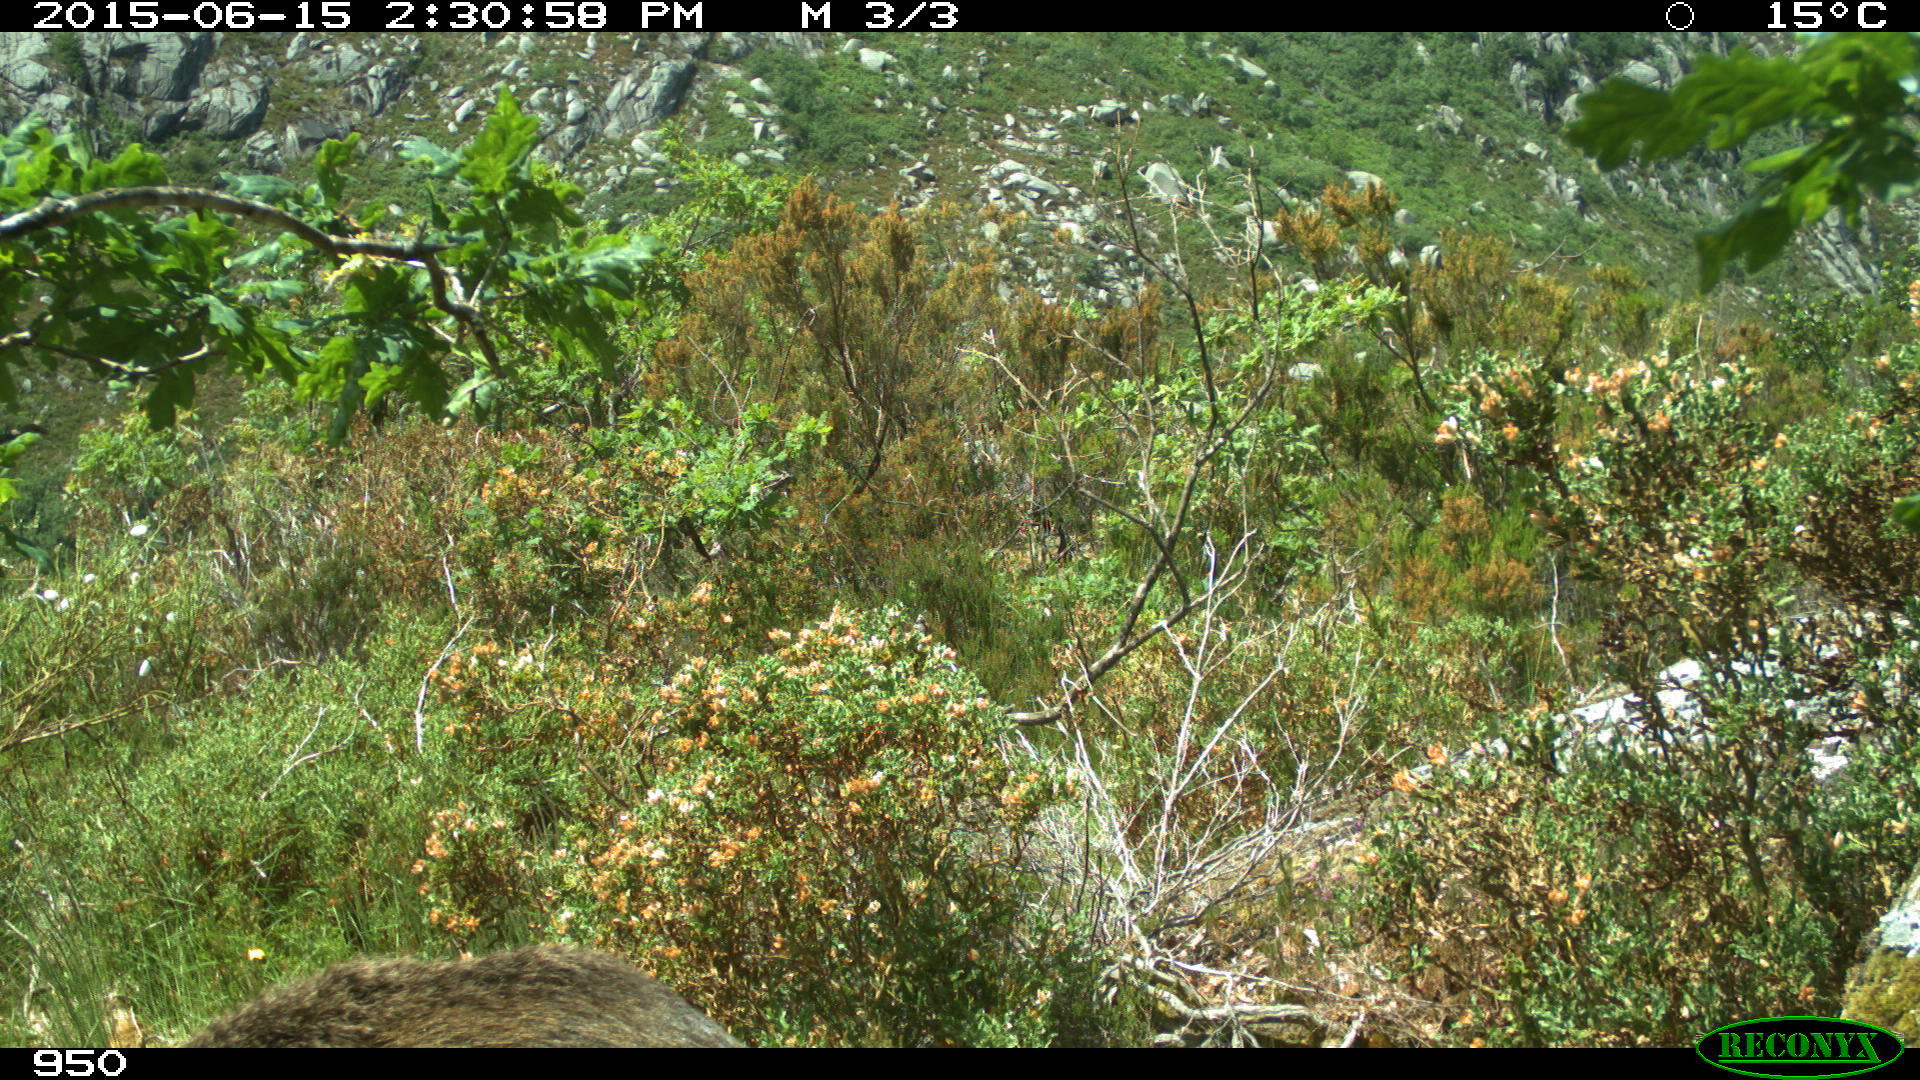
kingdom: Animalia
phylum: Chordata
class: Mammalia
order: Artiodactyla
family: Suidae
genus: Sus
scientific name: Sus scrofa
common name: Wild boar
